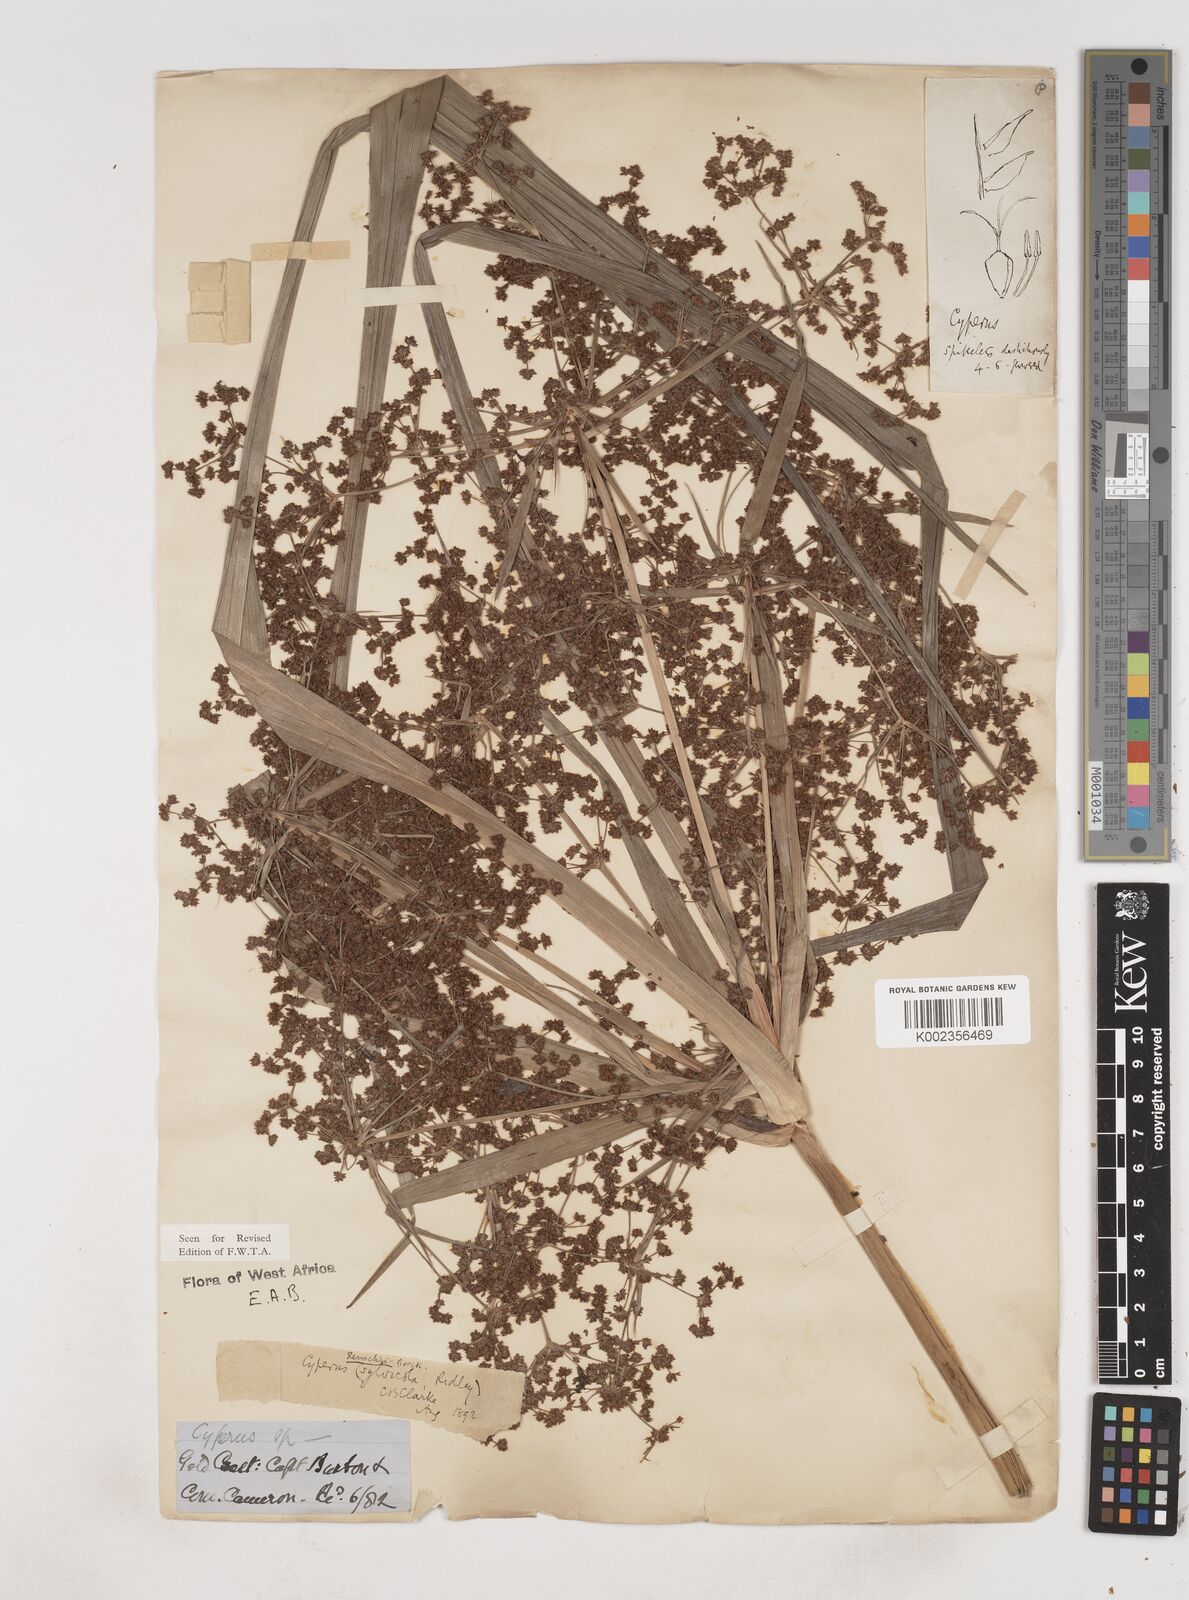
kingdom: Plantae
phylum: Tracheophyta
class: Liliopsida
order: Poales
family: Cyperaceae
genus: Cyperus
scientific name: Cyperus renschii
